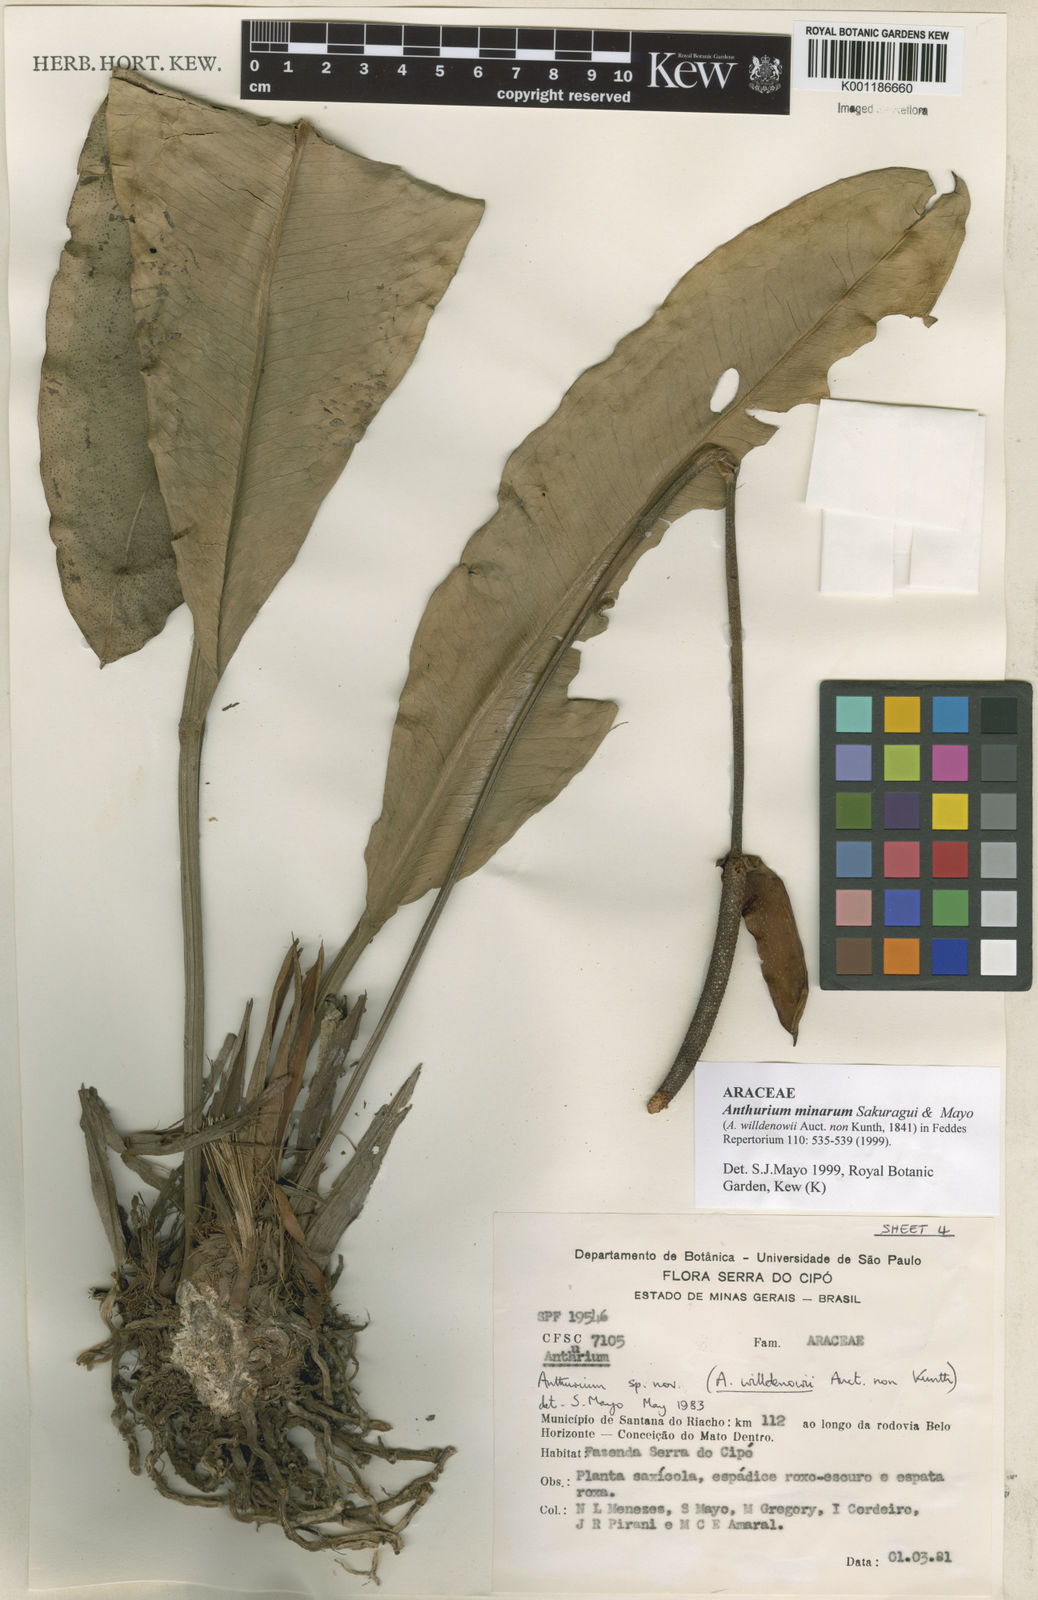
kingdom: Plantae
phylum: Tracheophyta
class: Liliopsida
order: Alismatales
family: Araceae
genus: Anthurium
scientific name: Anthurium minarum
